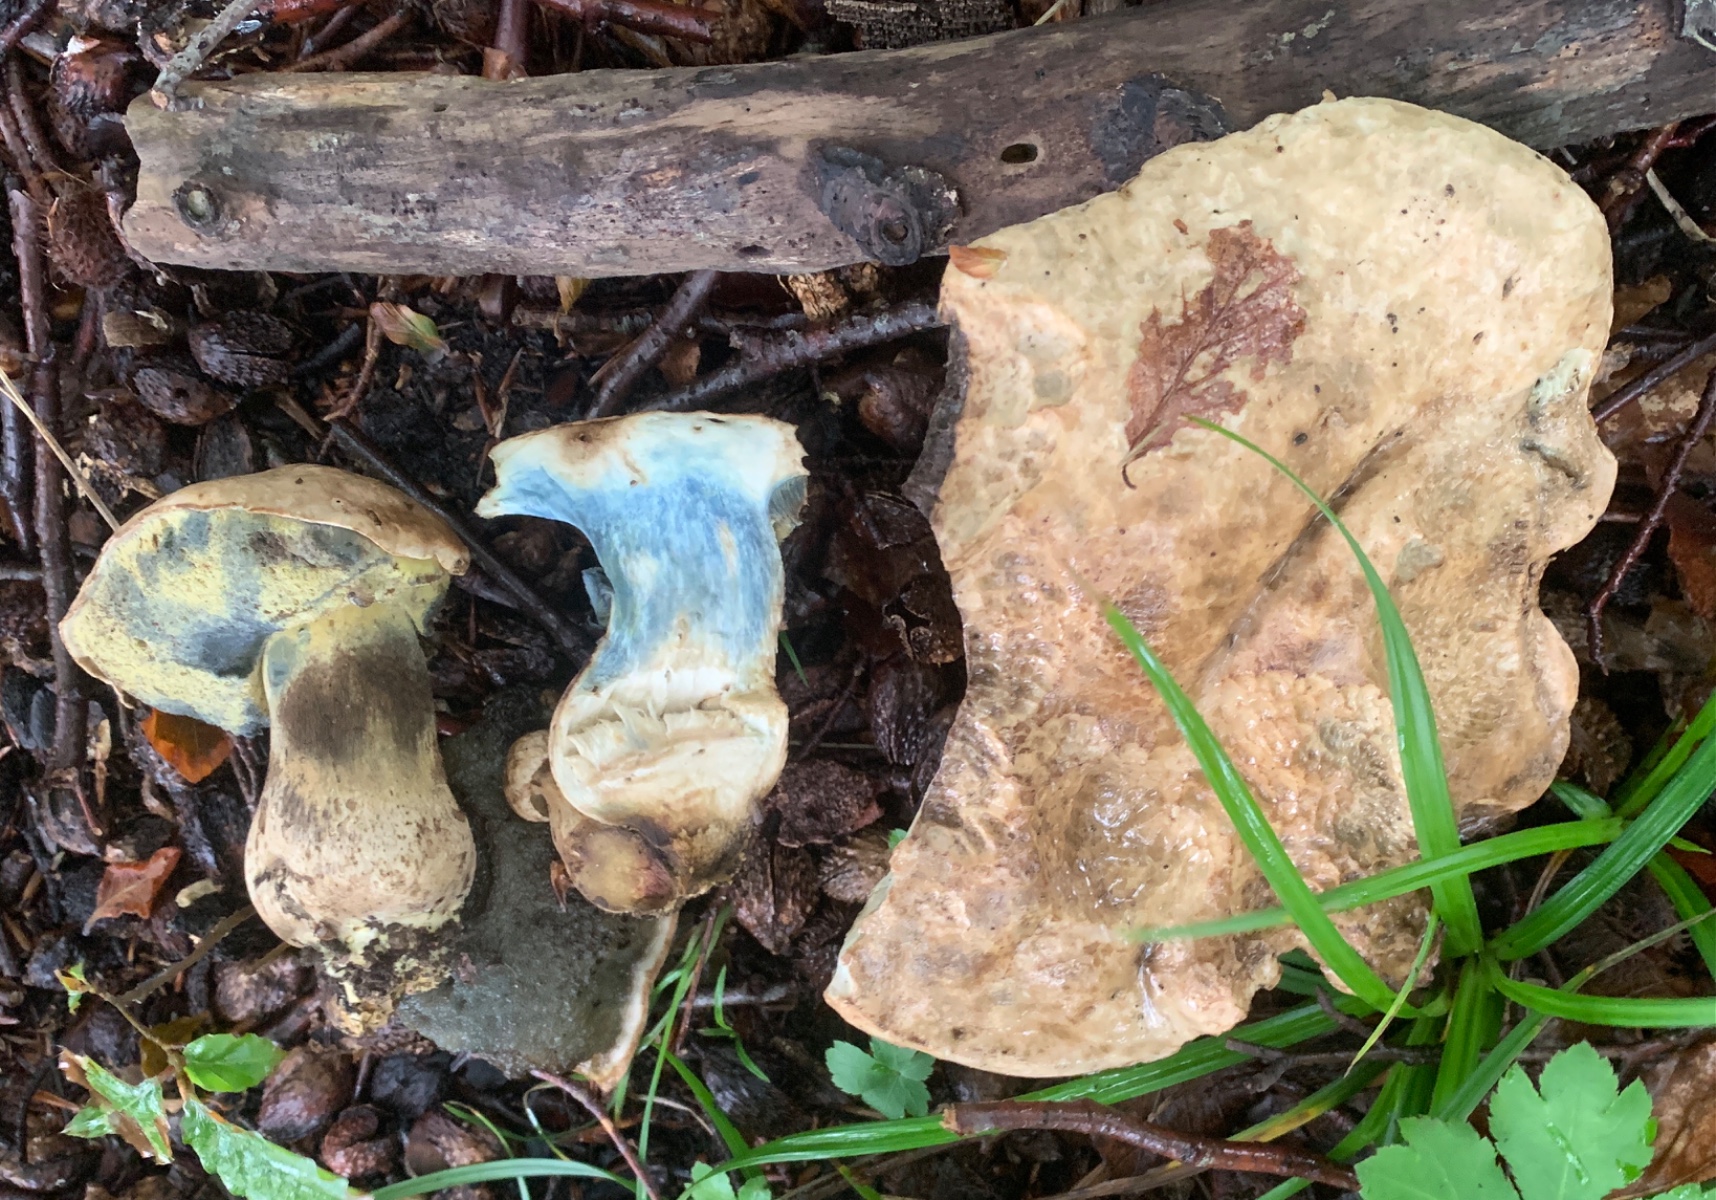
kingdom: Fungi
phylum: Basidiomycota
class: Agaricomycetes
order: Boletales
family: Boletaceae
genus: Caloboletus
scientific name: Caloboletus radicans
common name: rod-rørhat
